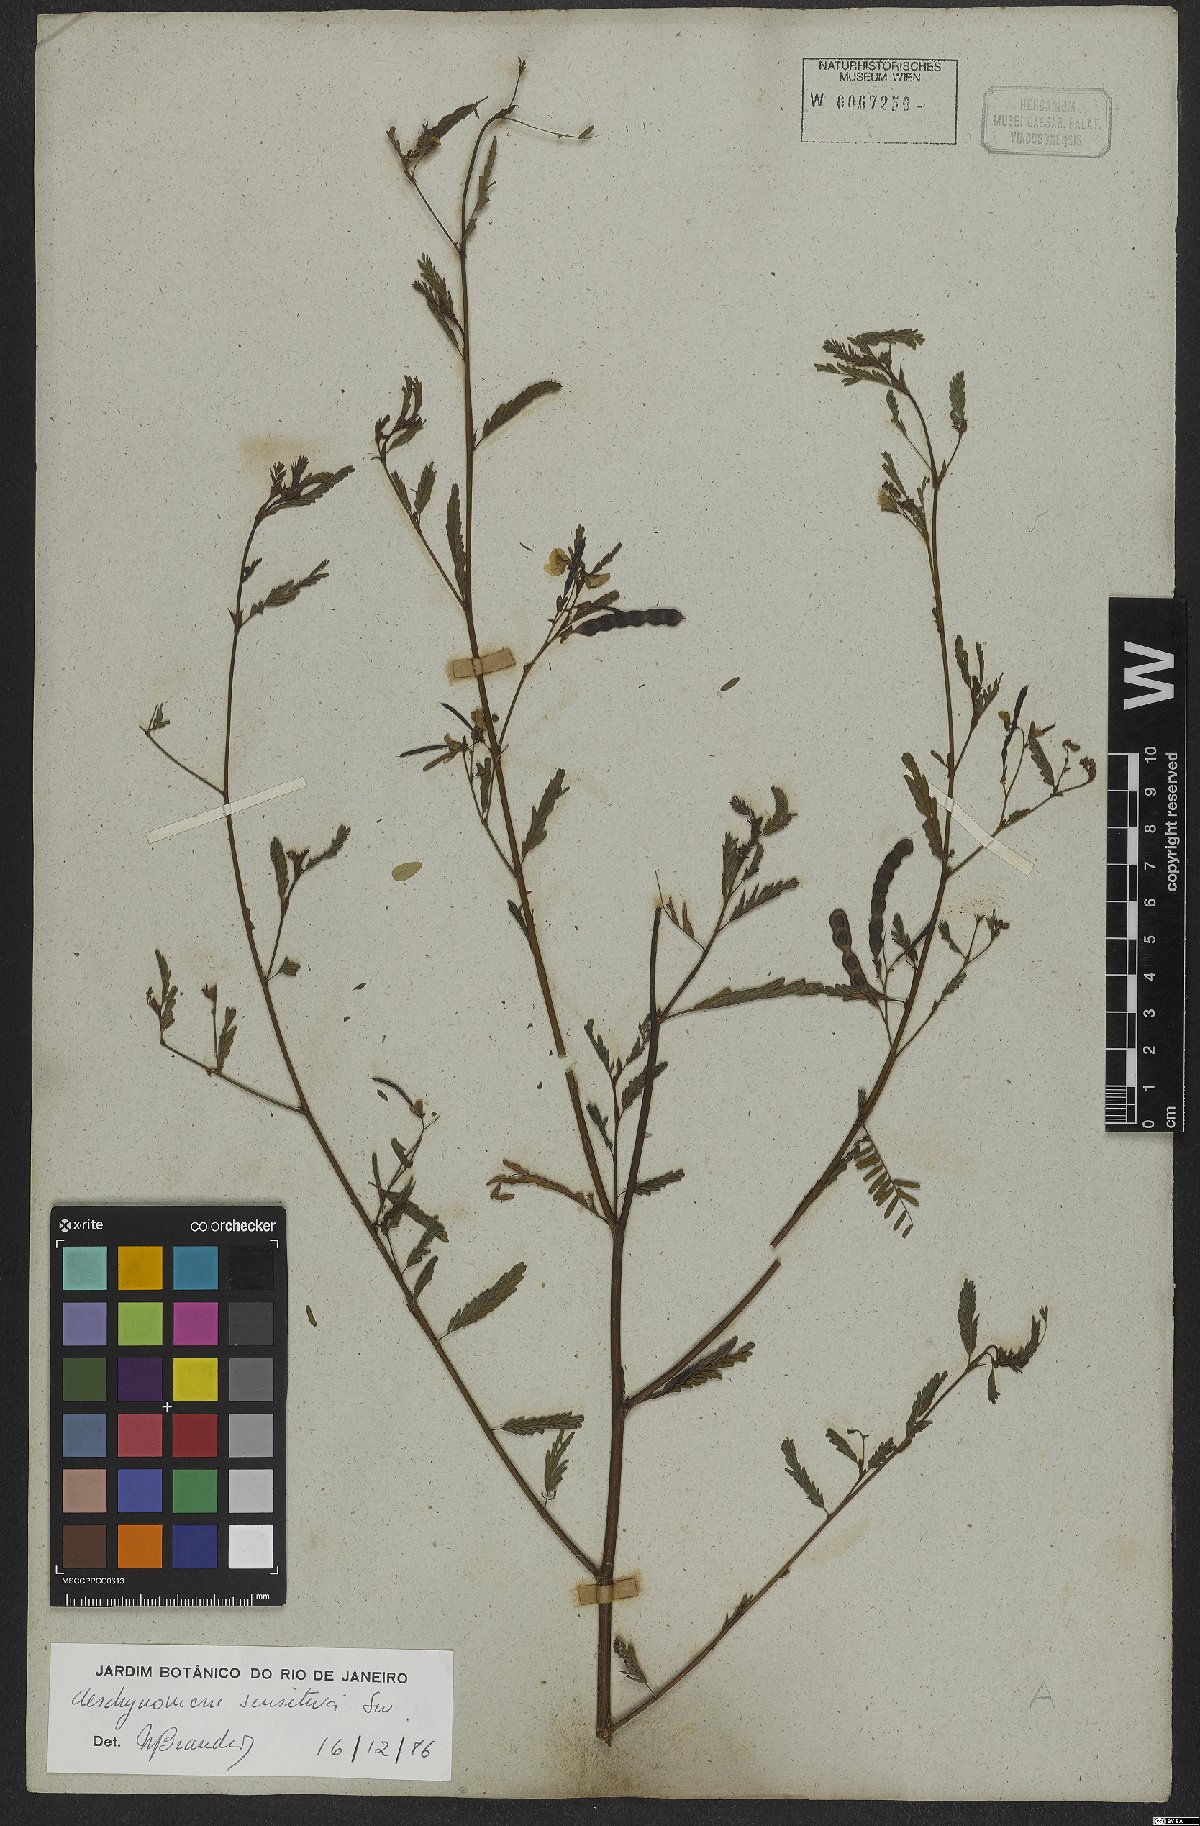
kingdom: Plantae
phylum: Tracheophyta
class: Magnoliopsida
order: Fabales
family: Fabaceae
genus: Aeschynomene
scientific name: Aeschynomene sensitiva
